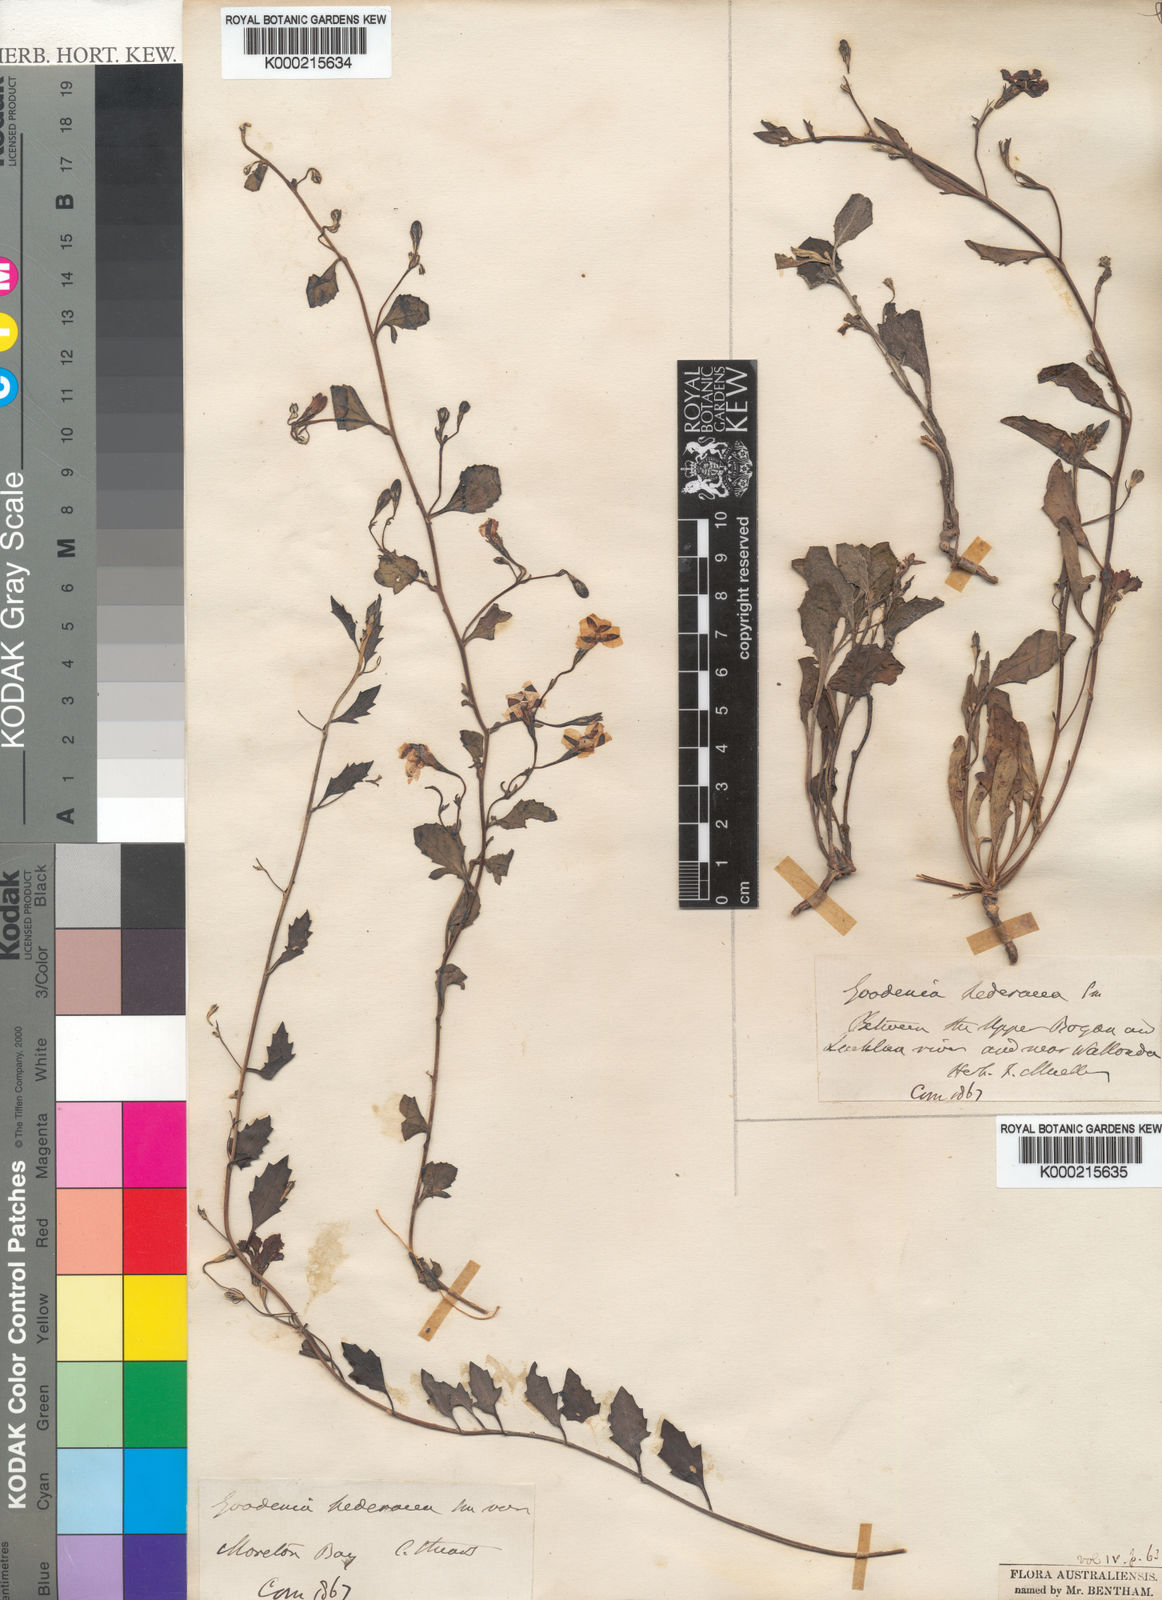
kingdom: Plantae
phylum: Tracheophyta
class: Magnoliopsida
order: Asterales
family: Goodeniaceae
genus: Goodenia
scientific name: Goodenia hederacea
